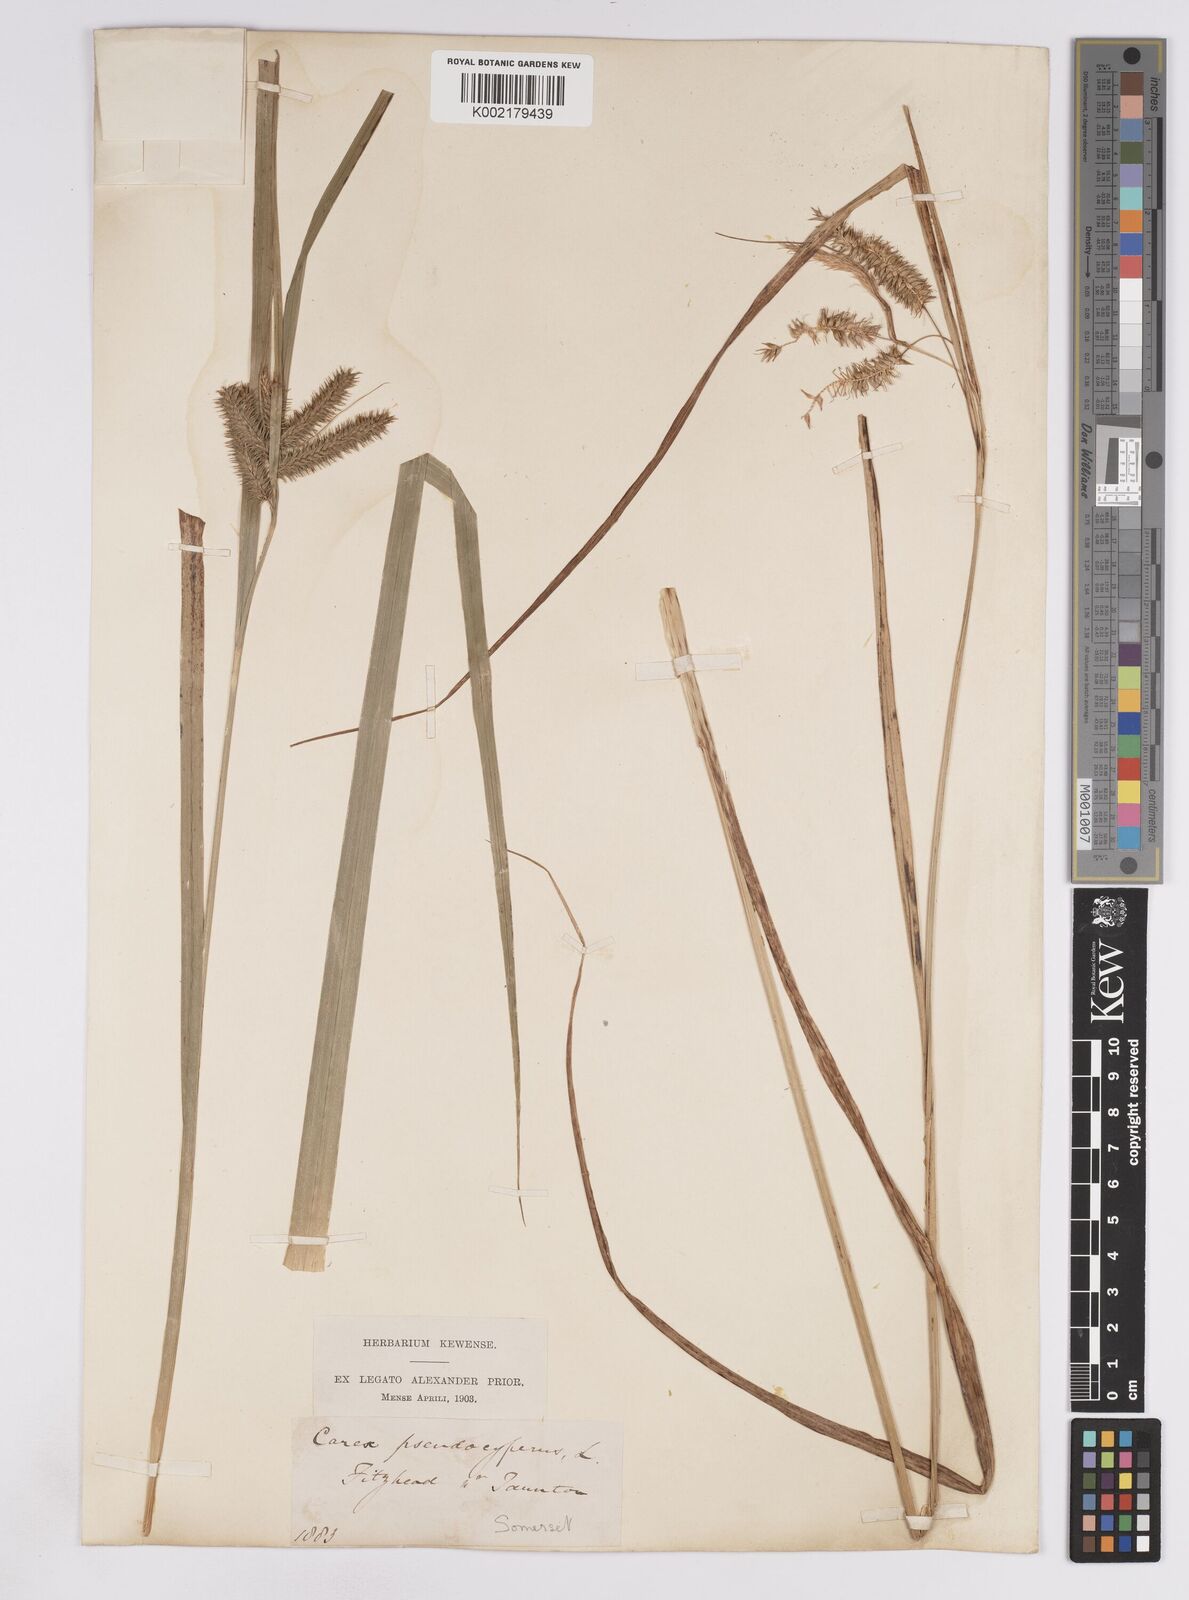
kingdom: Plantae
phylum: Tracheophyta
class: Liliopsida
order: Poales
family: Cyperaceae
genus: Carex
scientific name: Carex pseudocyperus
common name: Cyperus sedge
